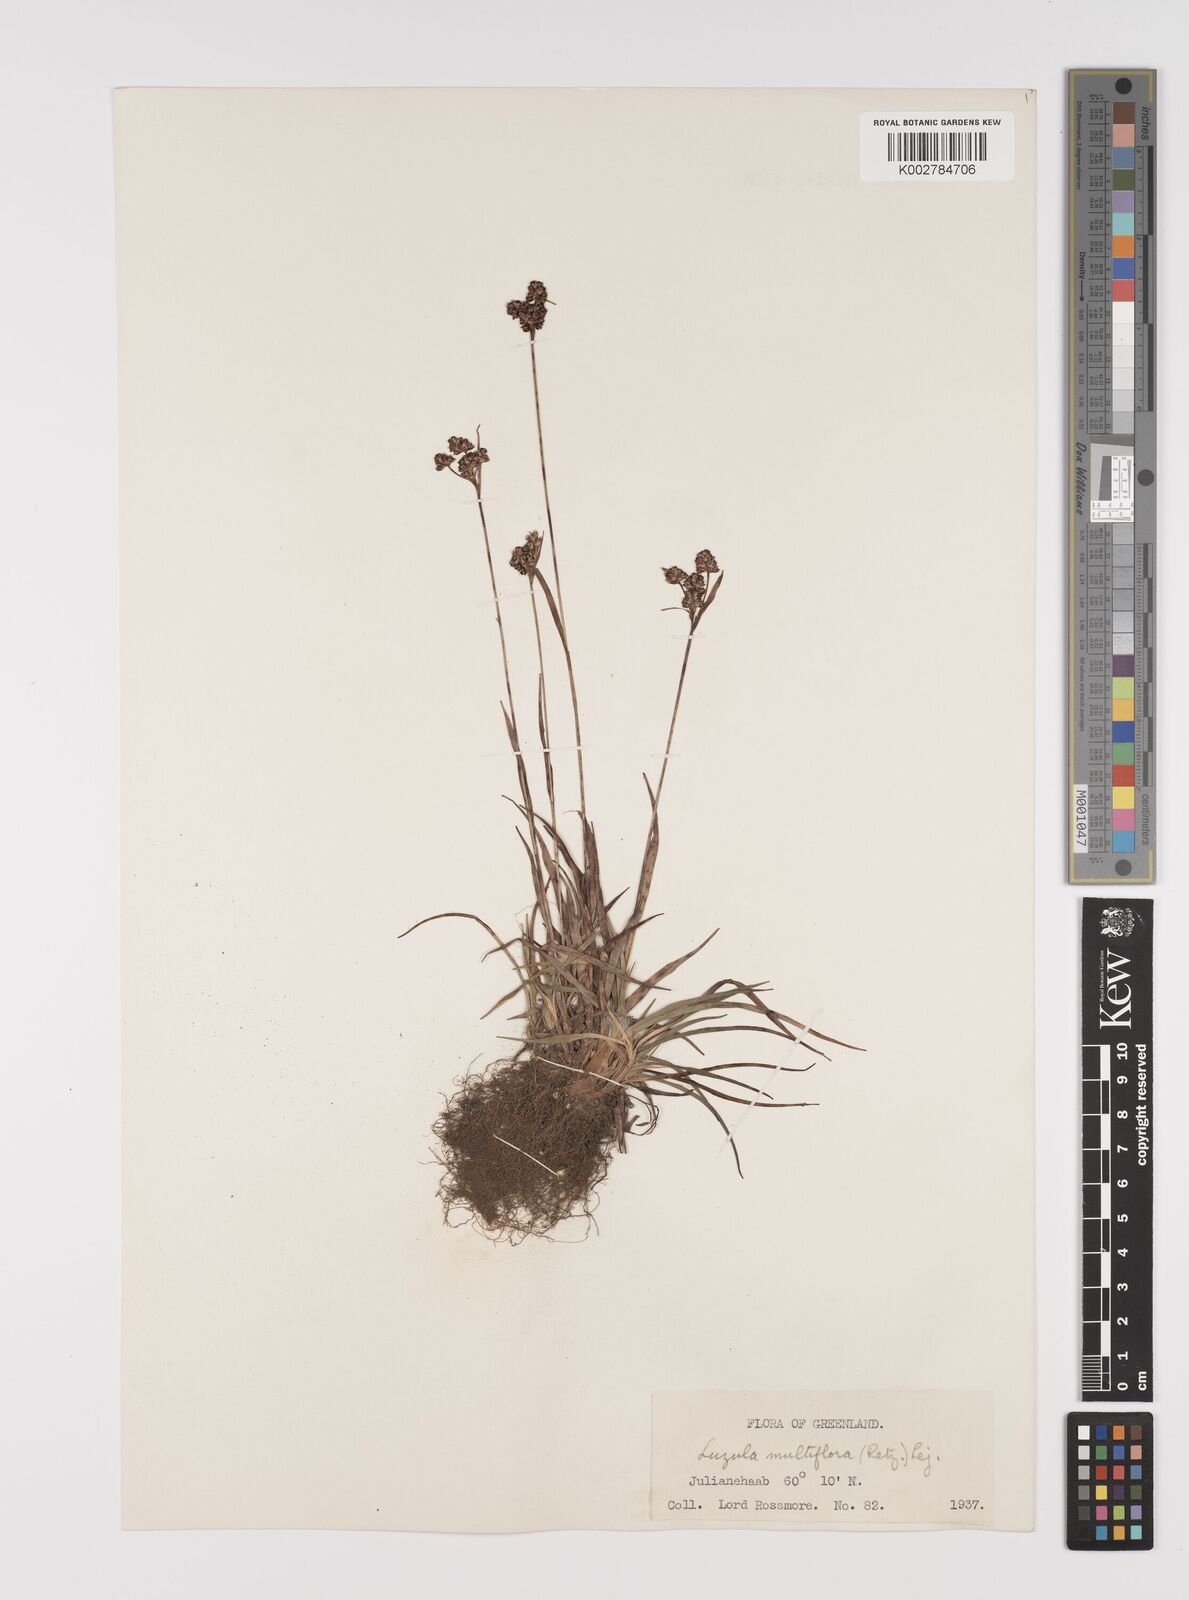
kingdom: Plantae
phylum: Tracheophyta
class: Liliopsida
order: Poales
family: Juncaceae
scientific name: Juncaceae
